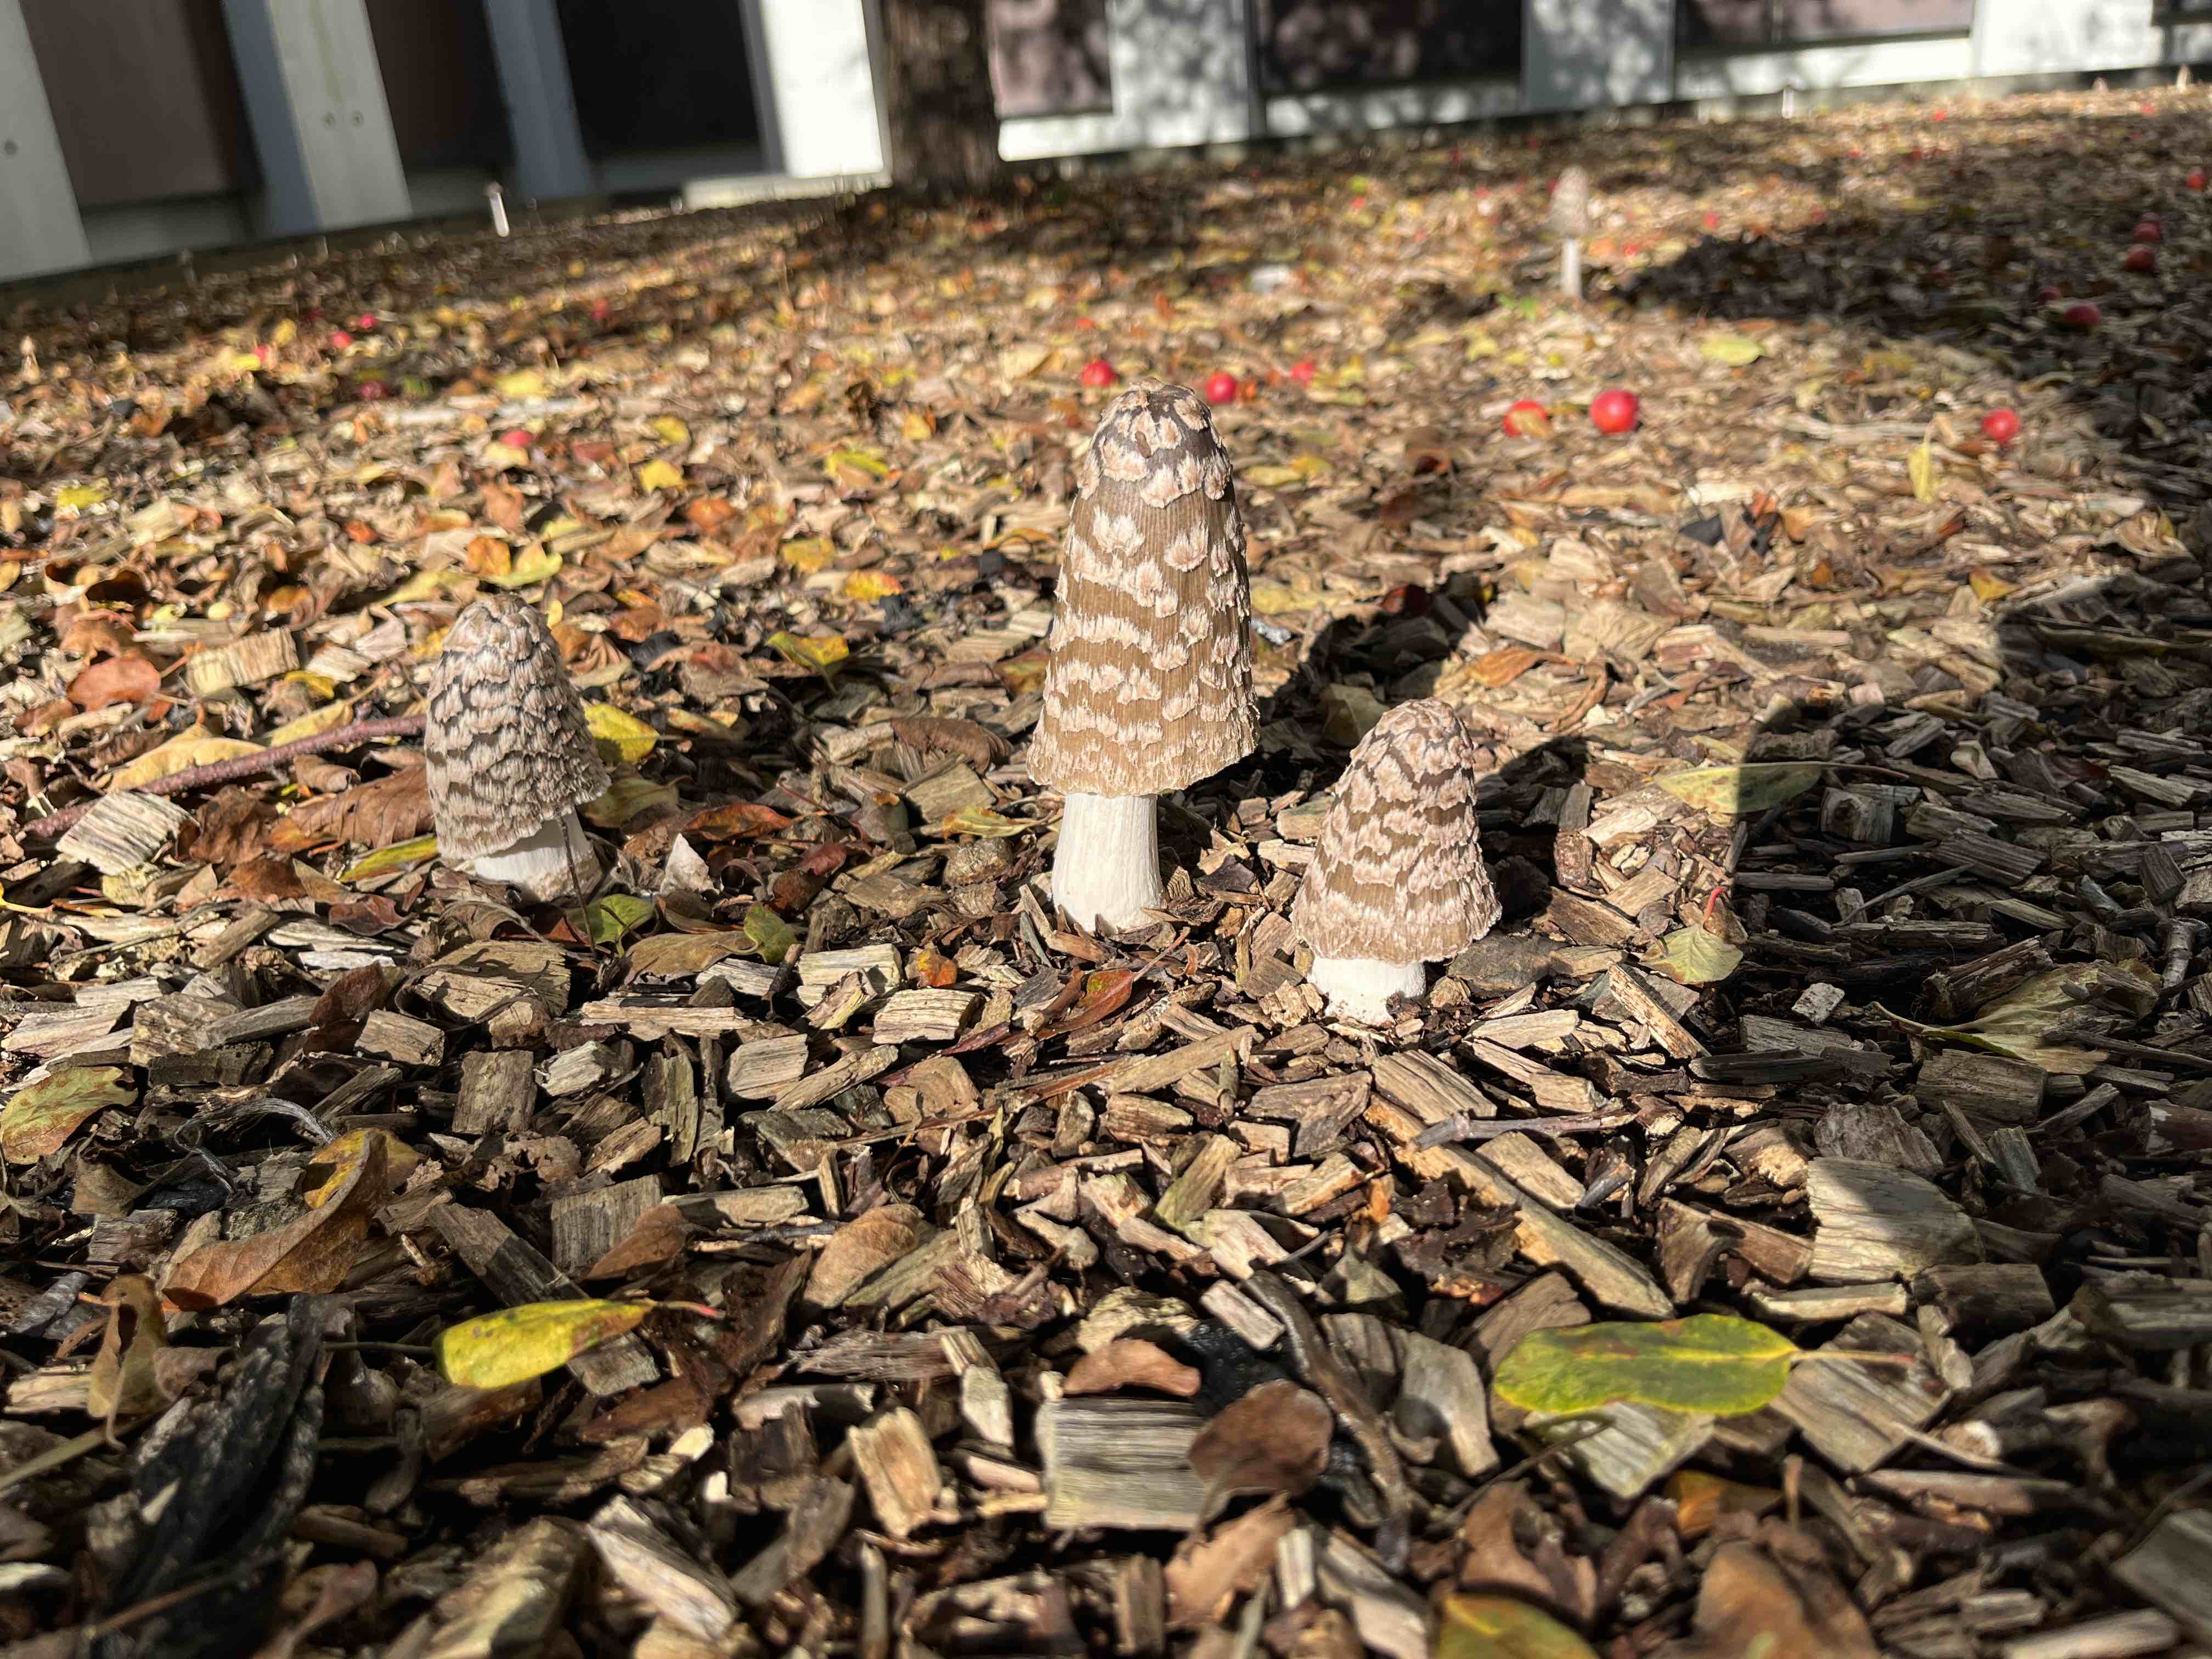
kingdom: Fungi
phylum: Basidiomycota
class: Agaricomycetes
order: Agaricales
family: Psathyrellaceae
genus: Coprinopsis
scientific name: Coprinopsis picacea
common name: skade-blækhat
